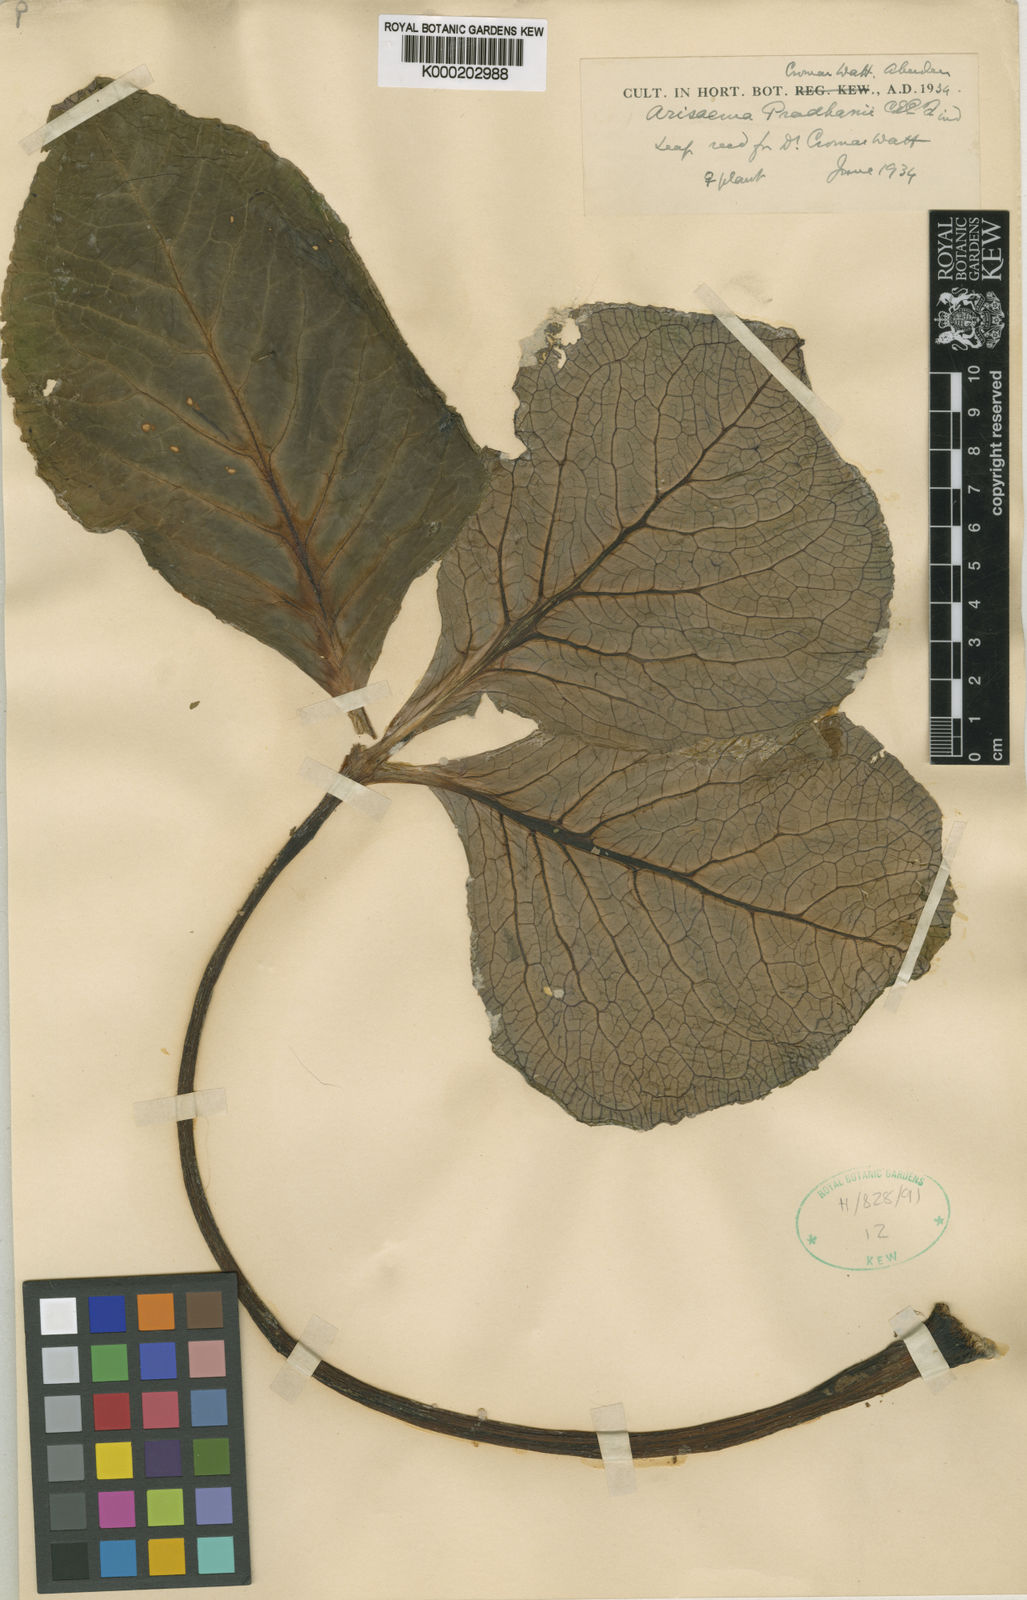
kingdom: Plantae
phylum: Tracheophyta
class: Liliopsida
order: Alismatales
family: Araceae
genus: Arisaema
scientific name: Arisaema griffithii
